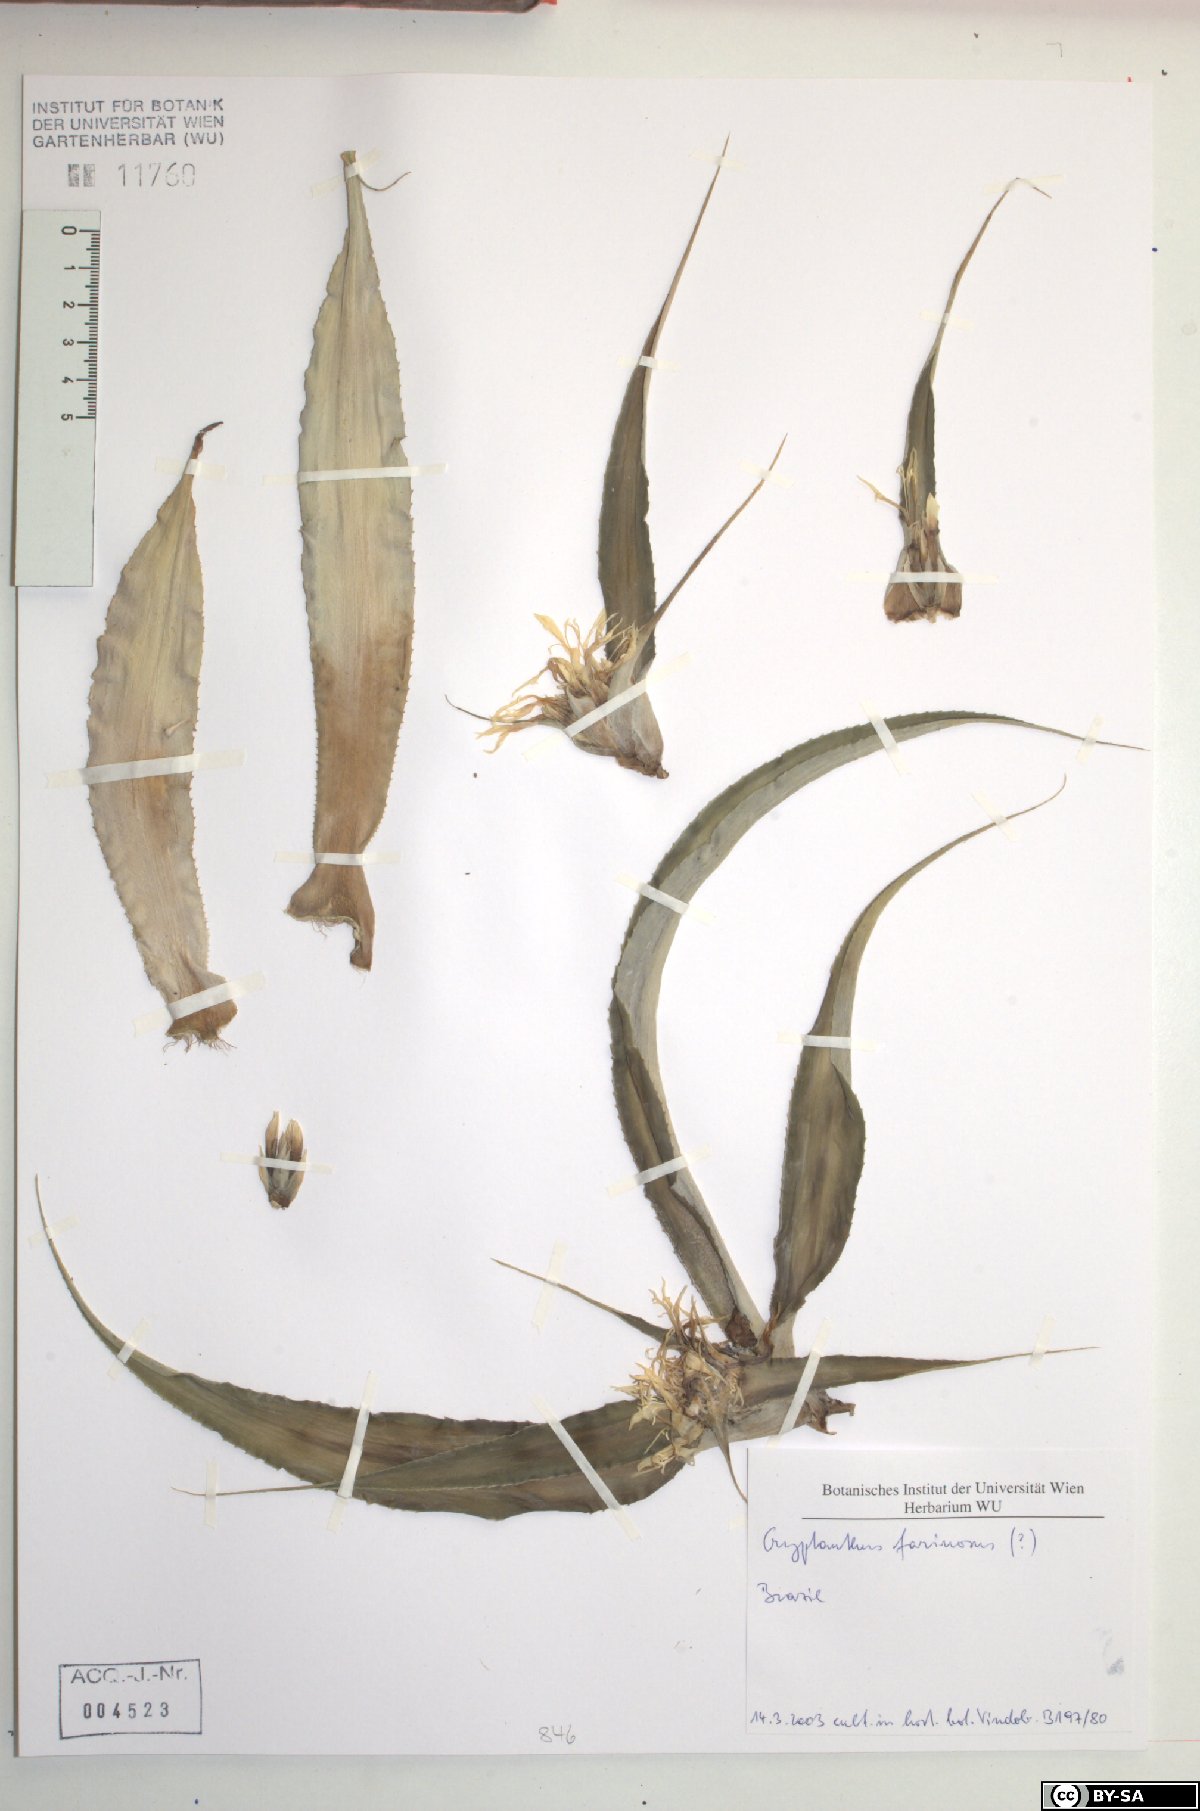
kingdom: Plantae
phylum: Tracheophyta
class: Liliopsida
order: Poales
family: Bromeliaceae
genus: Cryptanthus
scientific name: Cryptanthus
